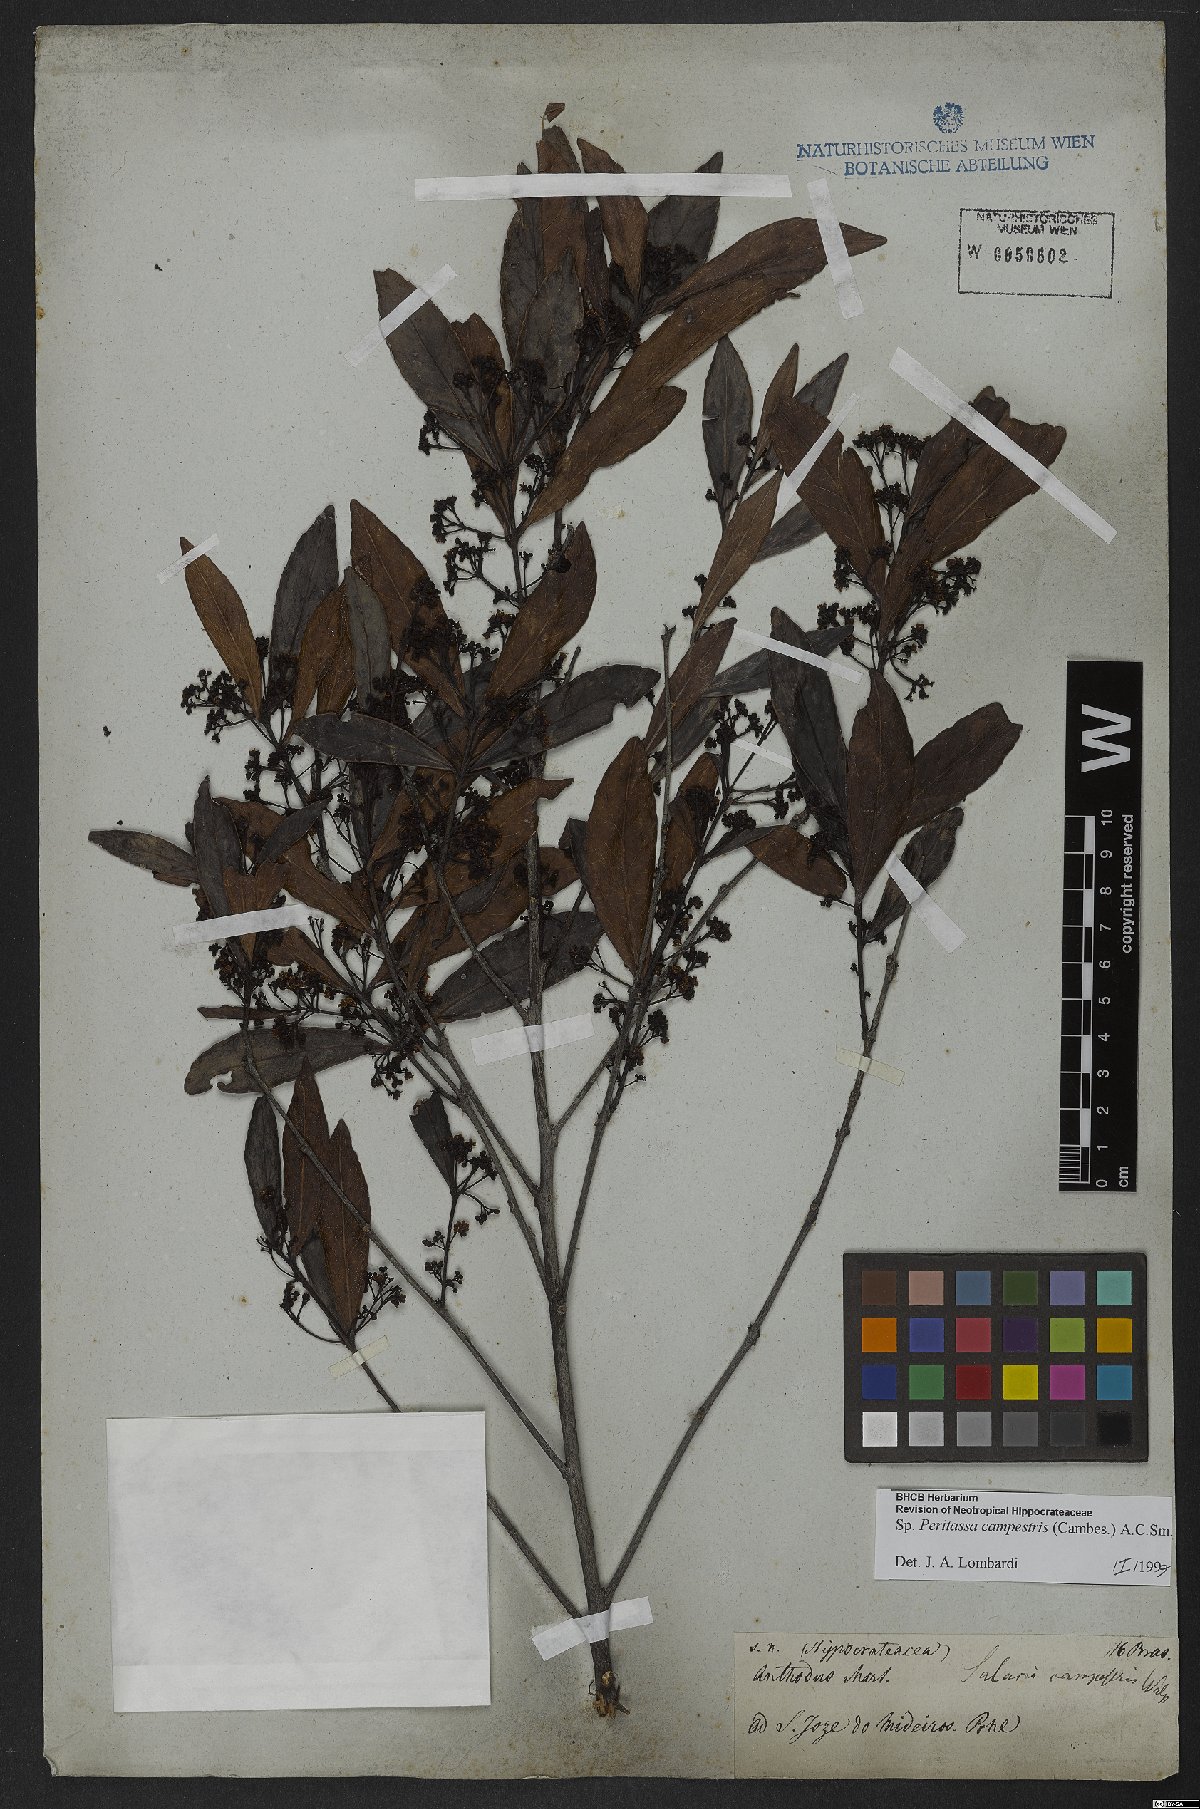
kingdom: Plantae
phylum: Tracheophyta
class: Magnoliopsida
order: Celastrales
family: Celastraceae
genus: Peritassa
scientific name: Peritassa campestris
